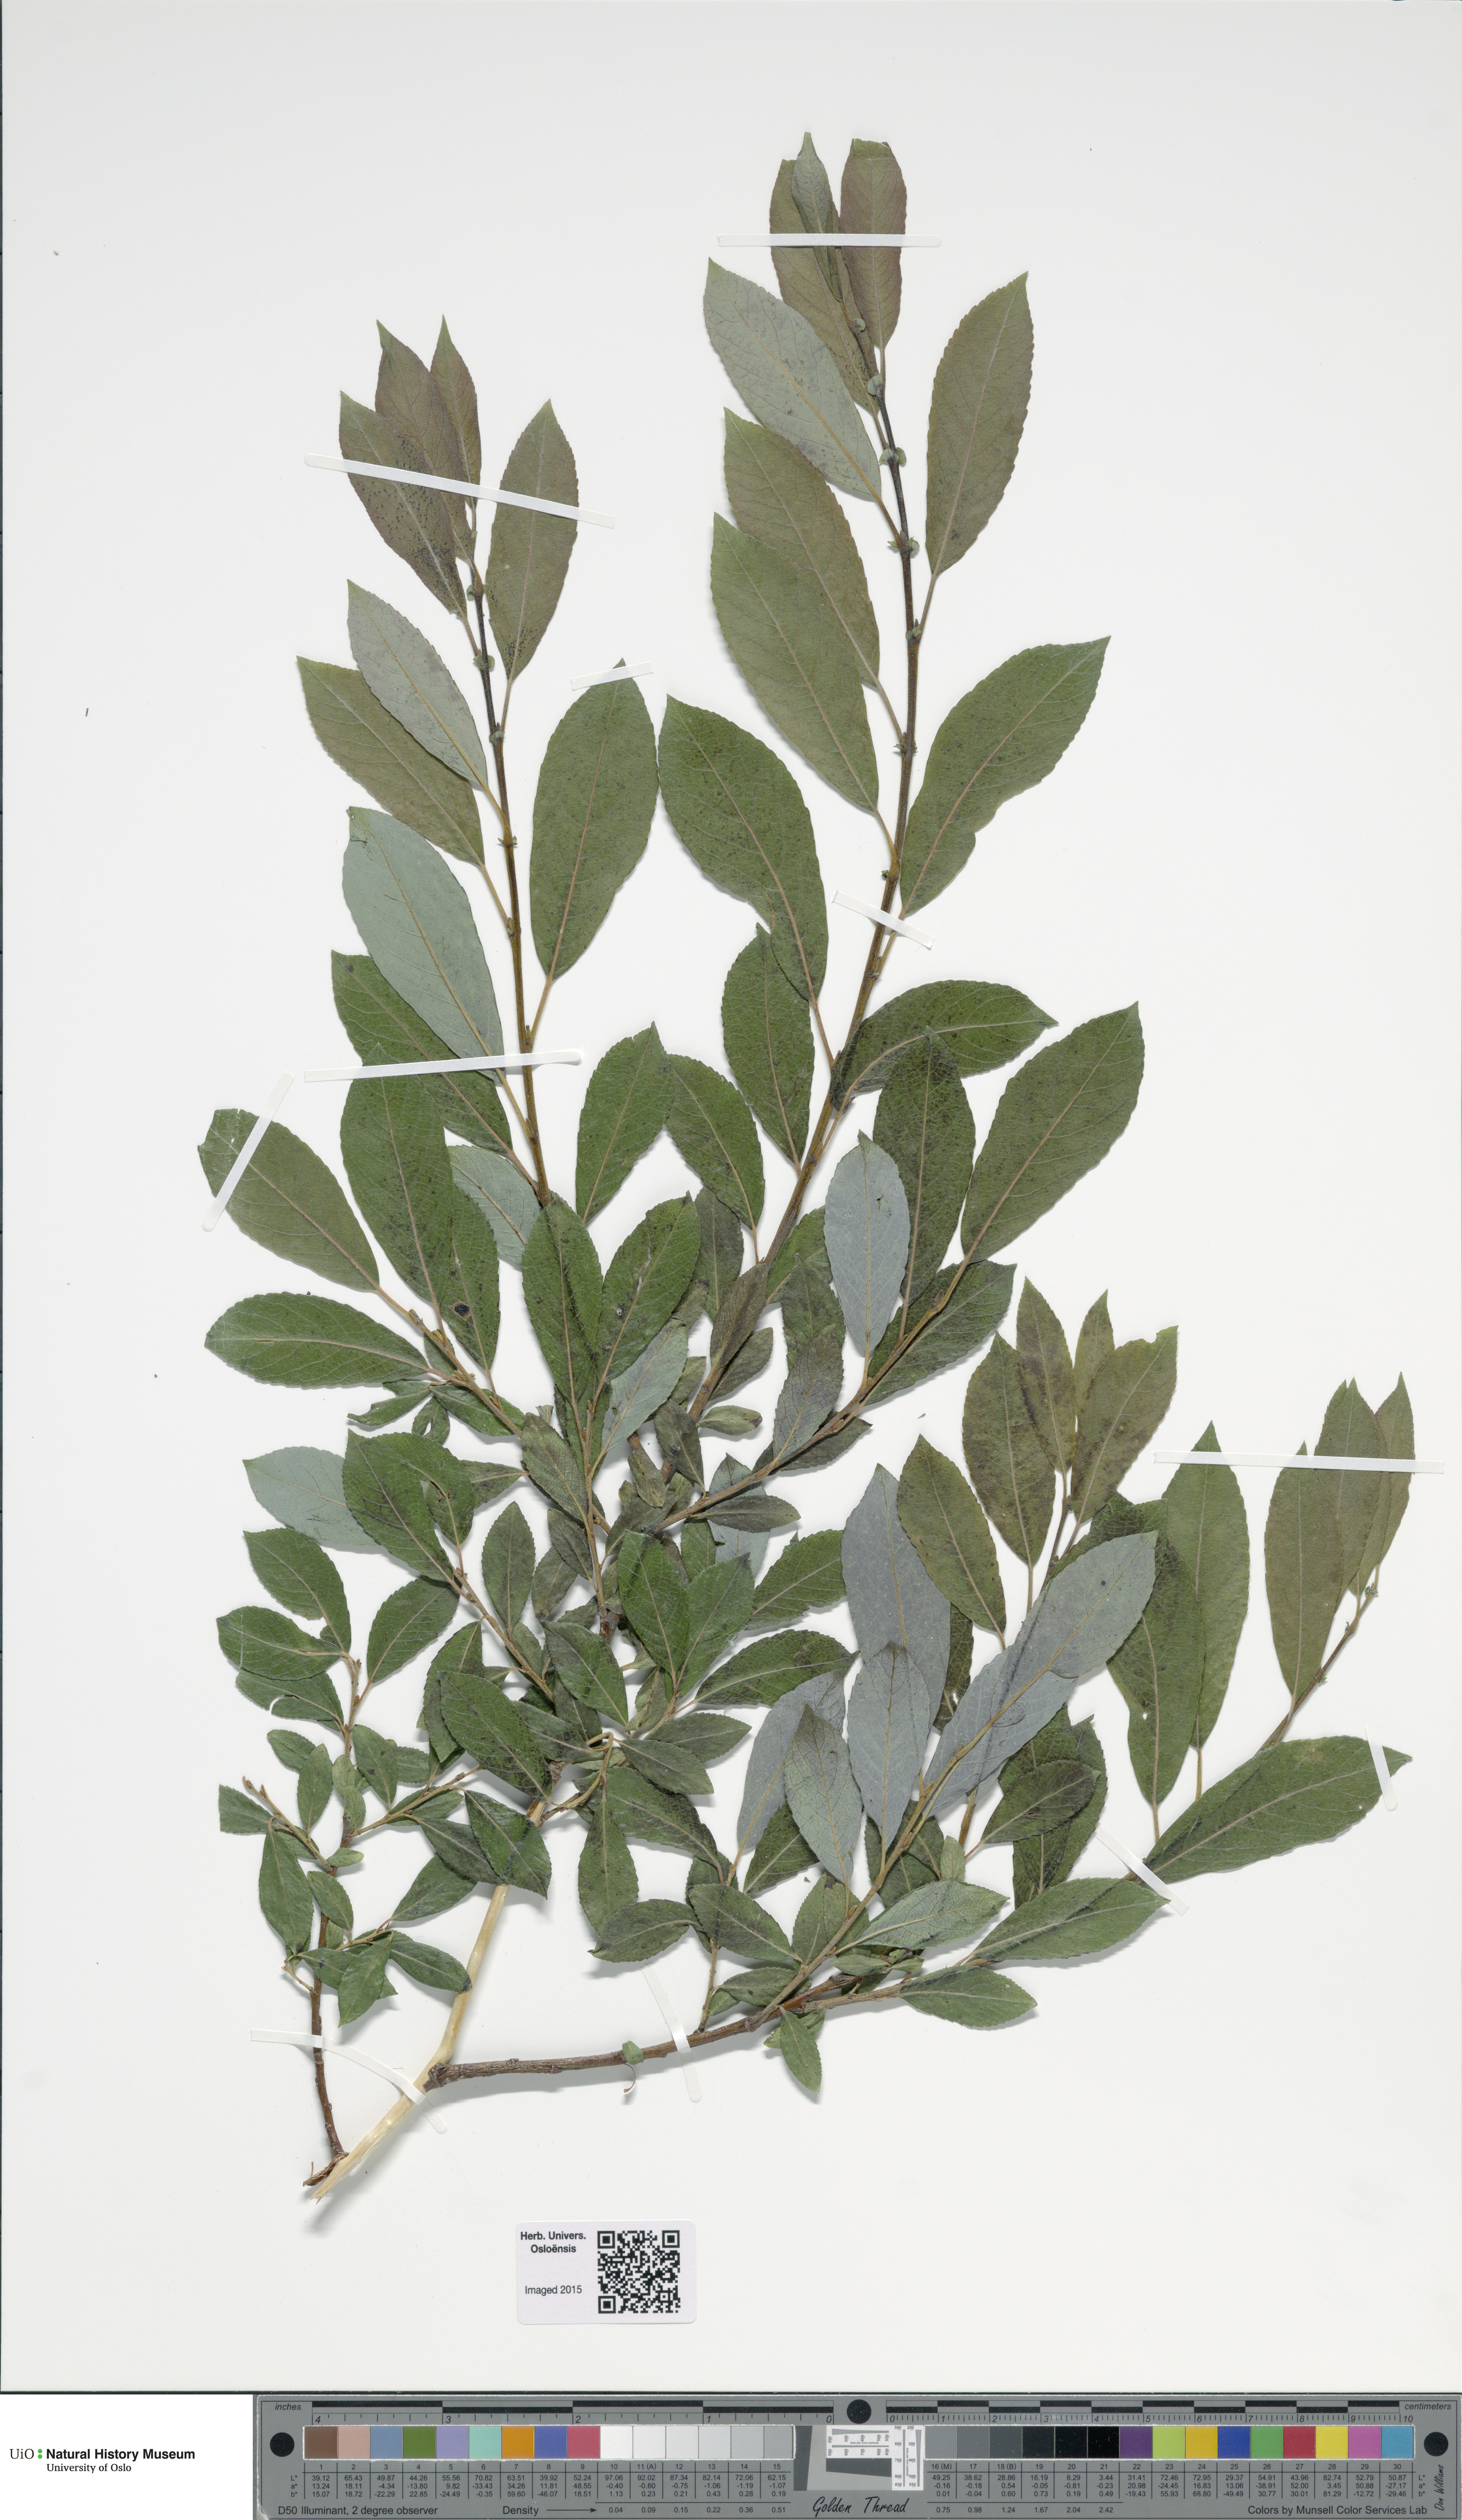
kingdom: Plantae
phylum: Tracheophyta
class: Magnoliopsida
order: Malpighiales
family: Salicaceae
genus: Salix
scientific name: Salix
